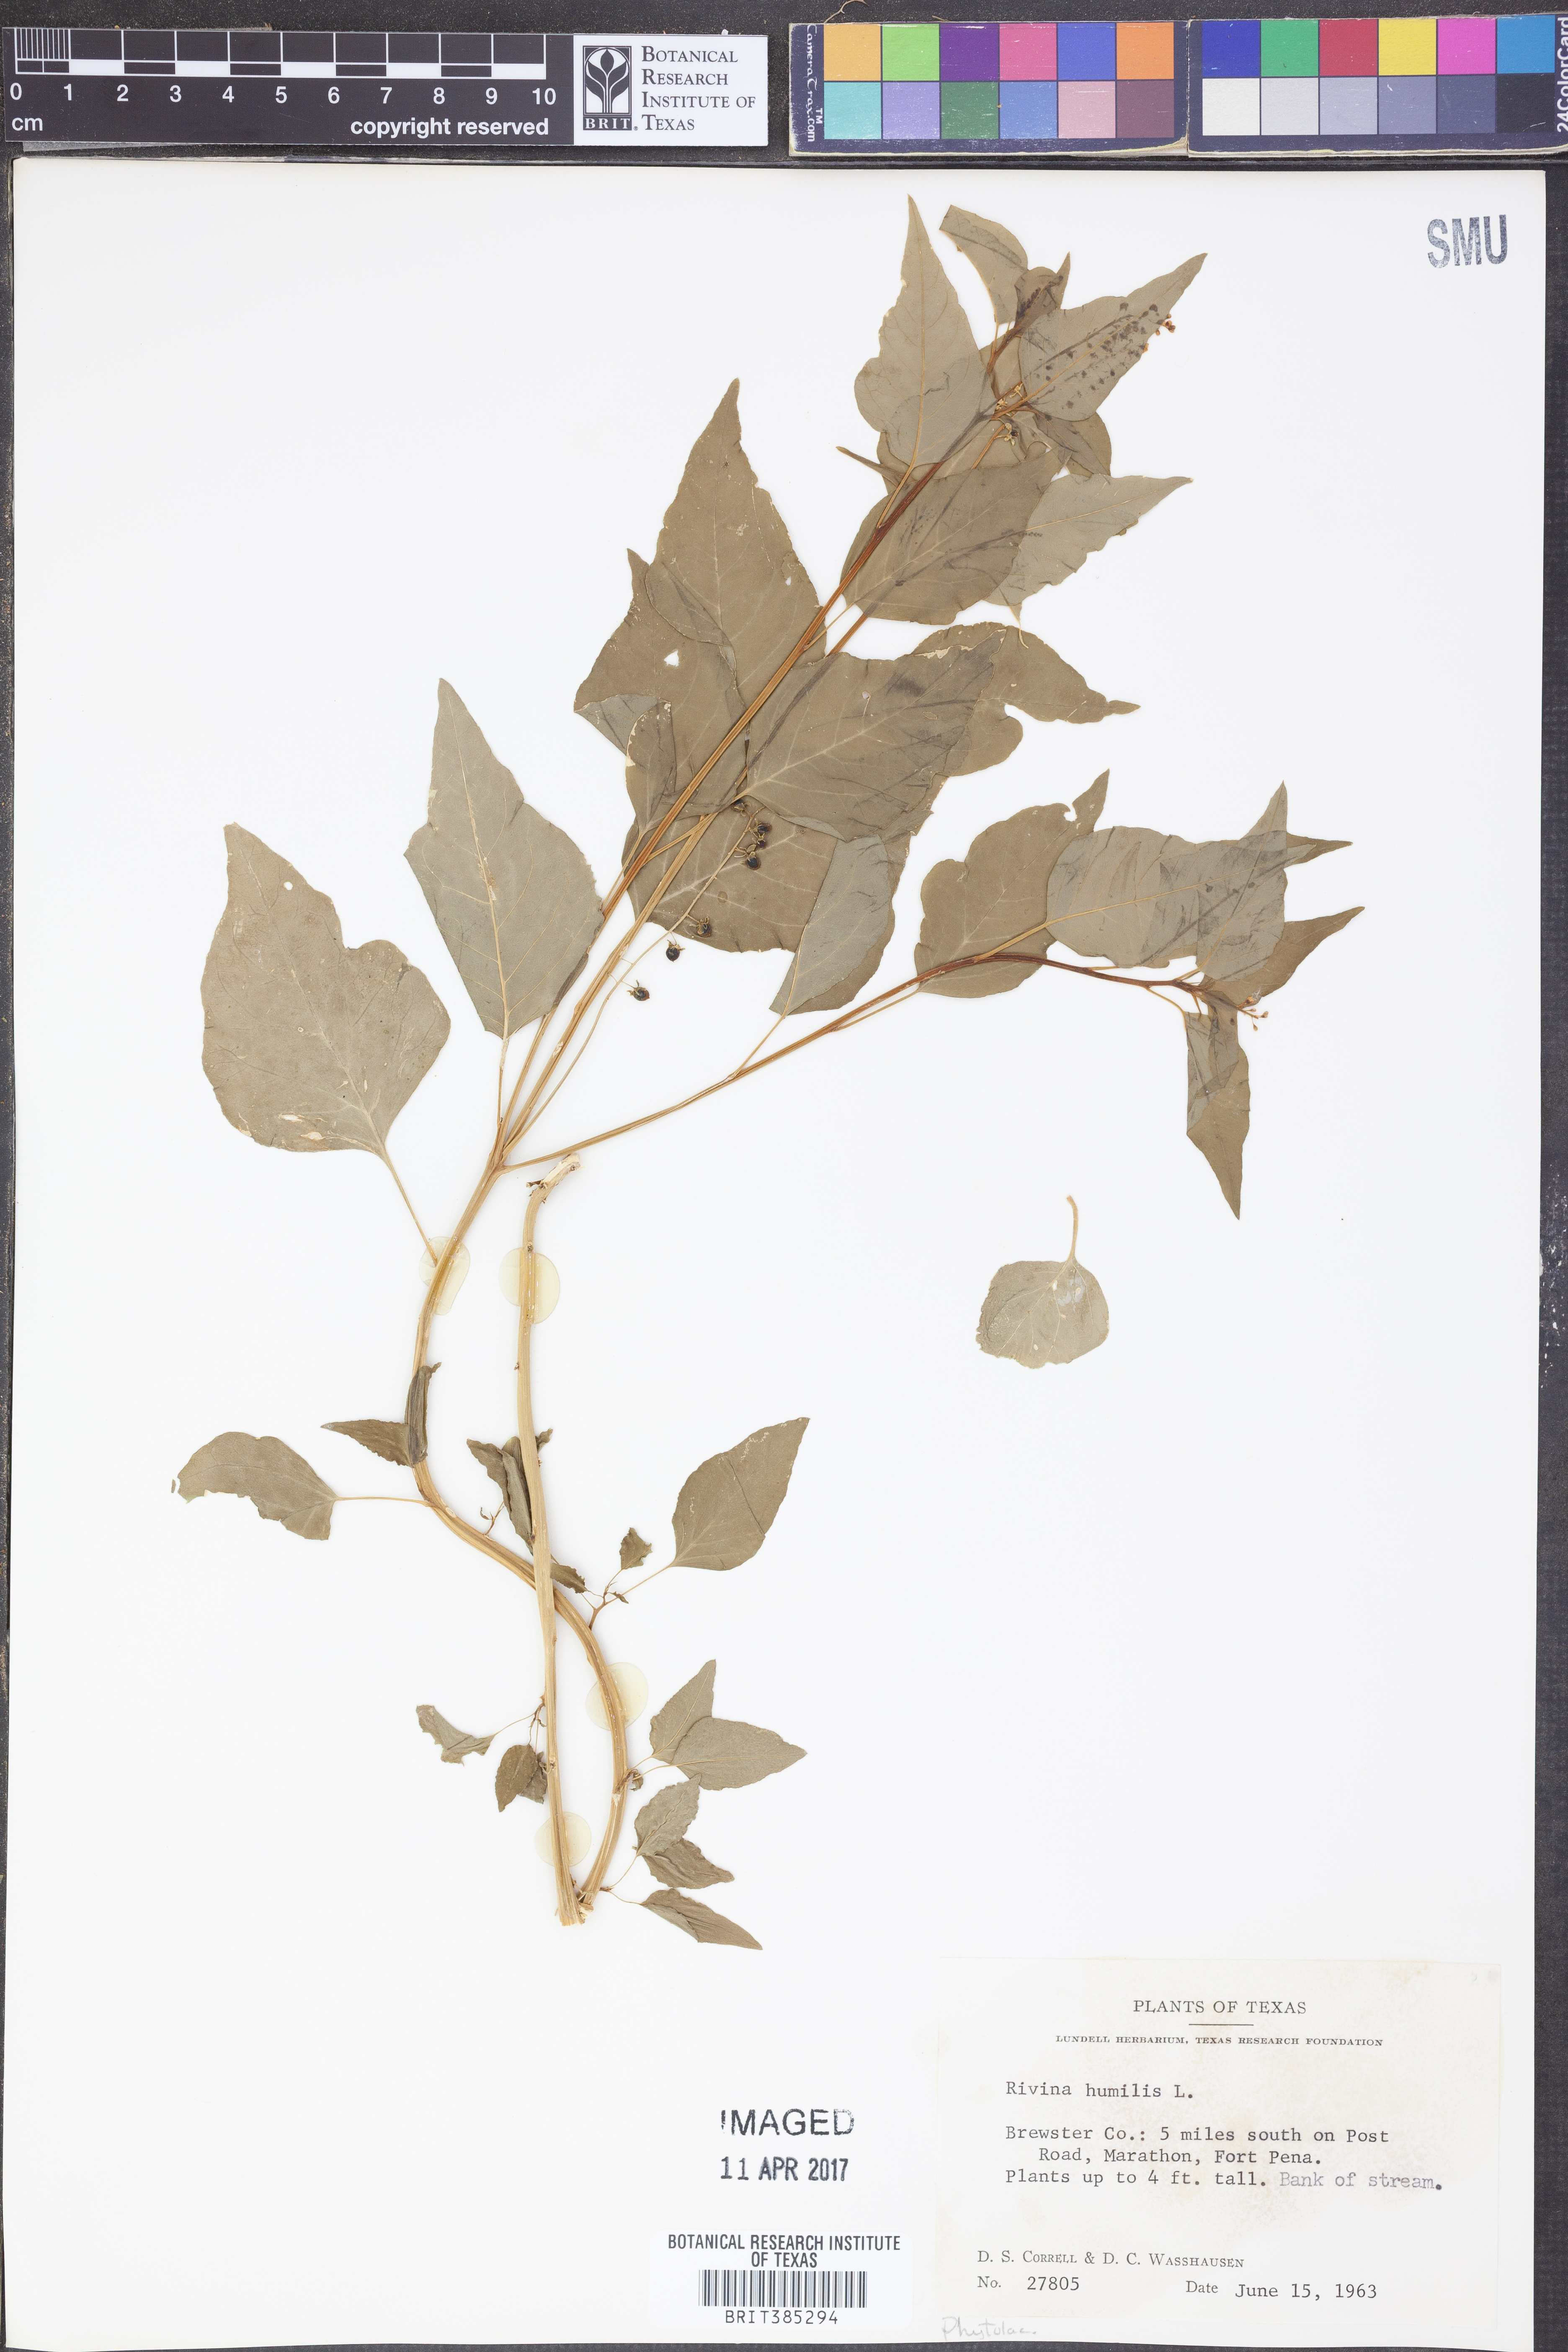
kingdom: Plantae
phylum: Tracheophyta
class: Magnoliopsida
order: Caryophyllales
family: Phytolaccaceae
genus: Rivina
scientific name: Rivina humilis
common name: Rougeplant
